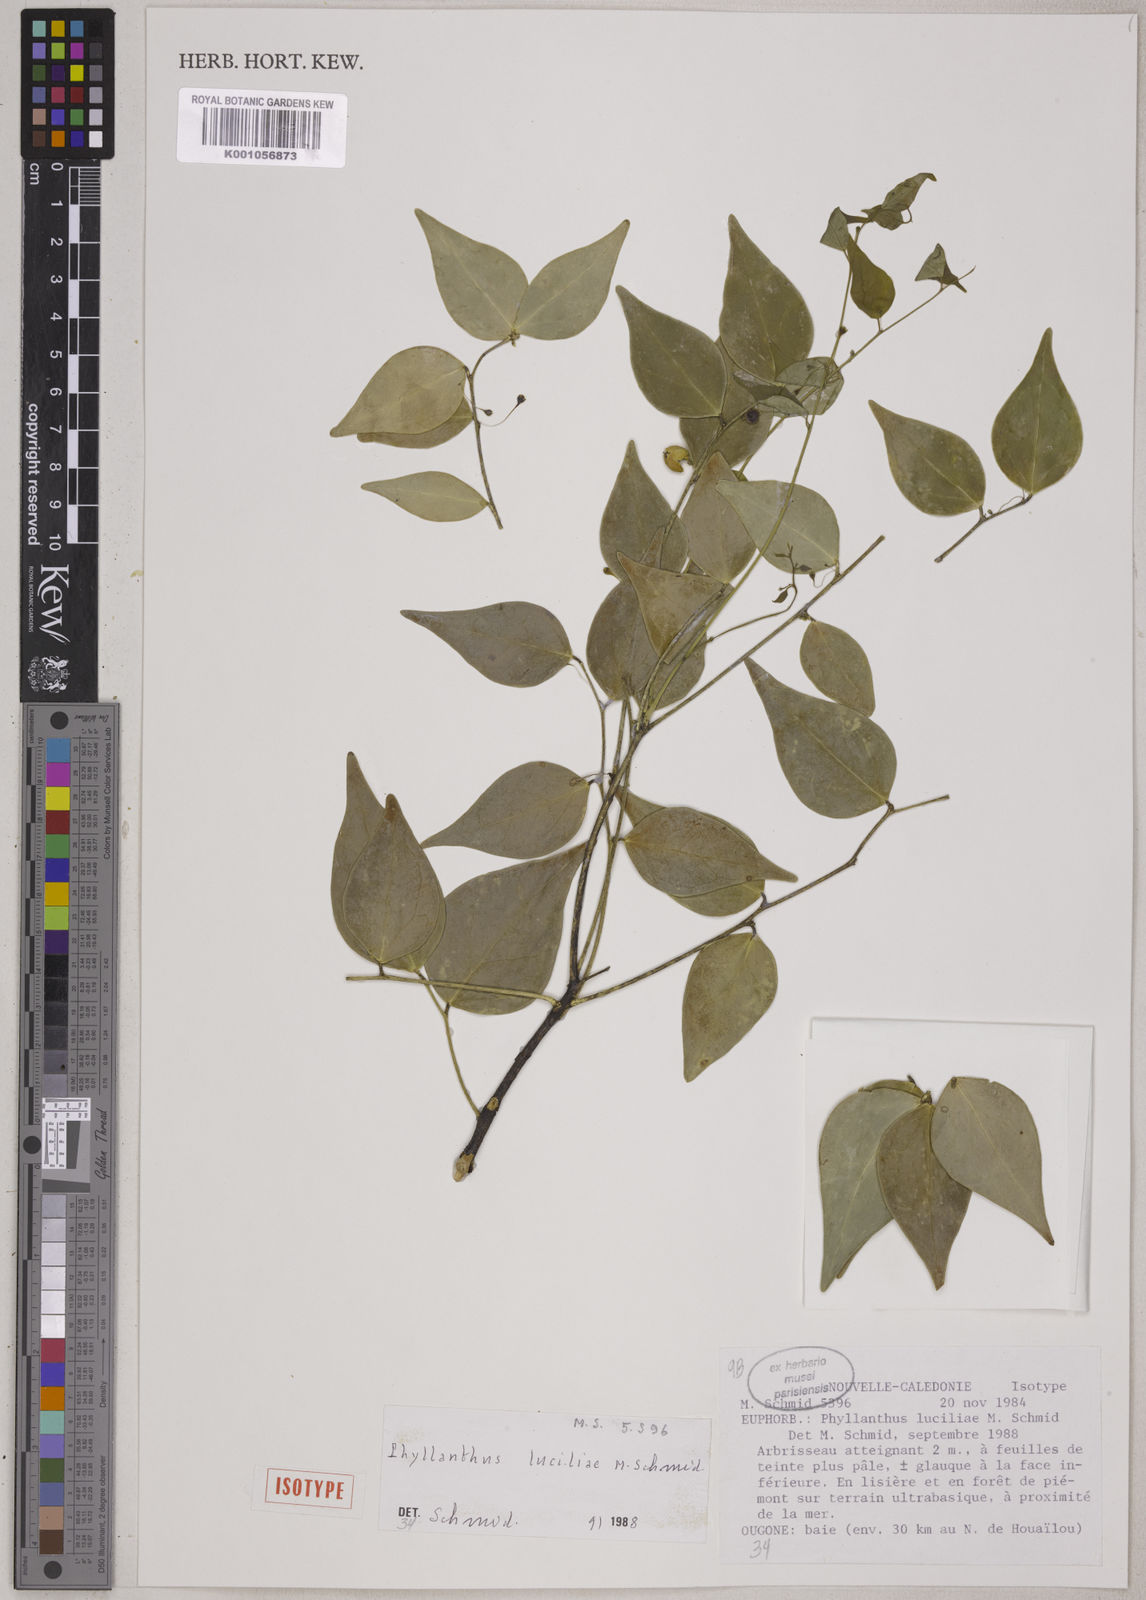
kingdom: Plantae
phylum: Tracheophyta
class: Magnoliopsida
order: Malpighiales
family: Phyllanthaceae
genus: Phyllanthus
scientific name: Phyllanthus luciliae
